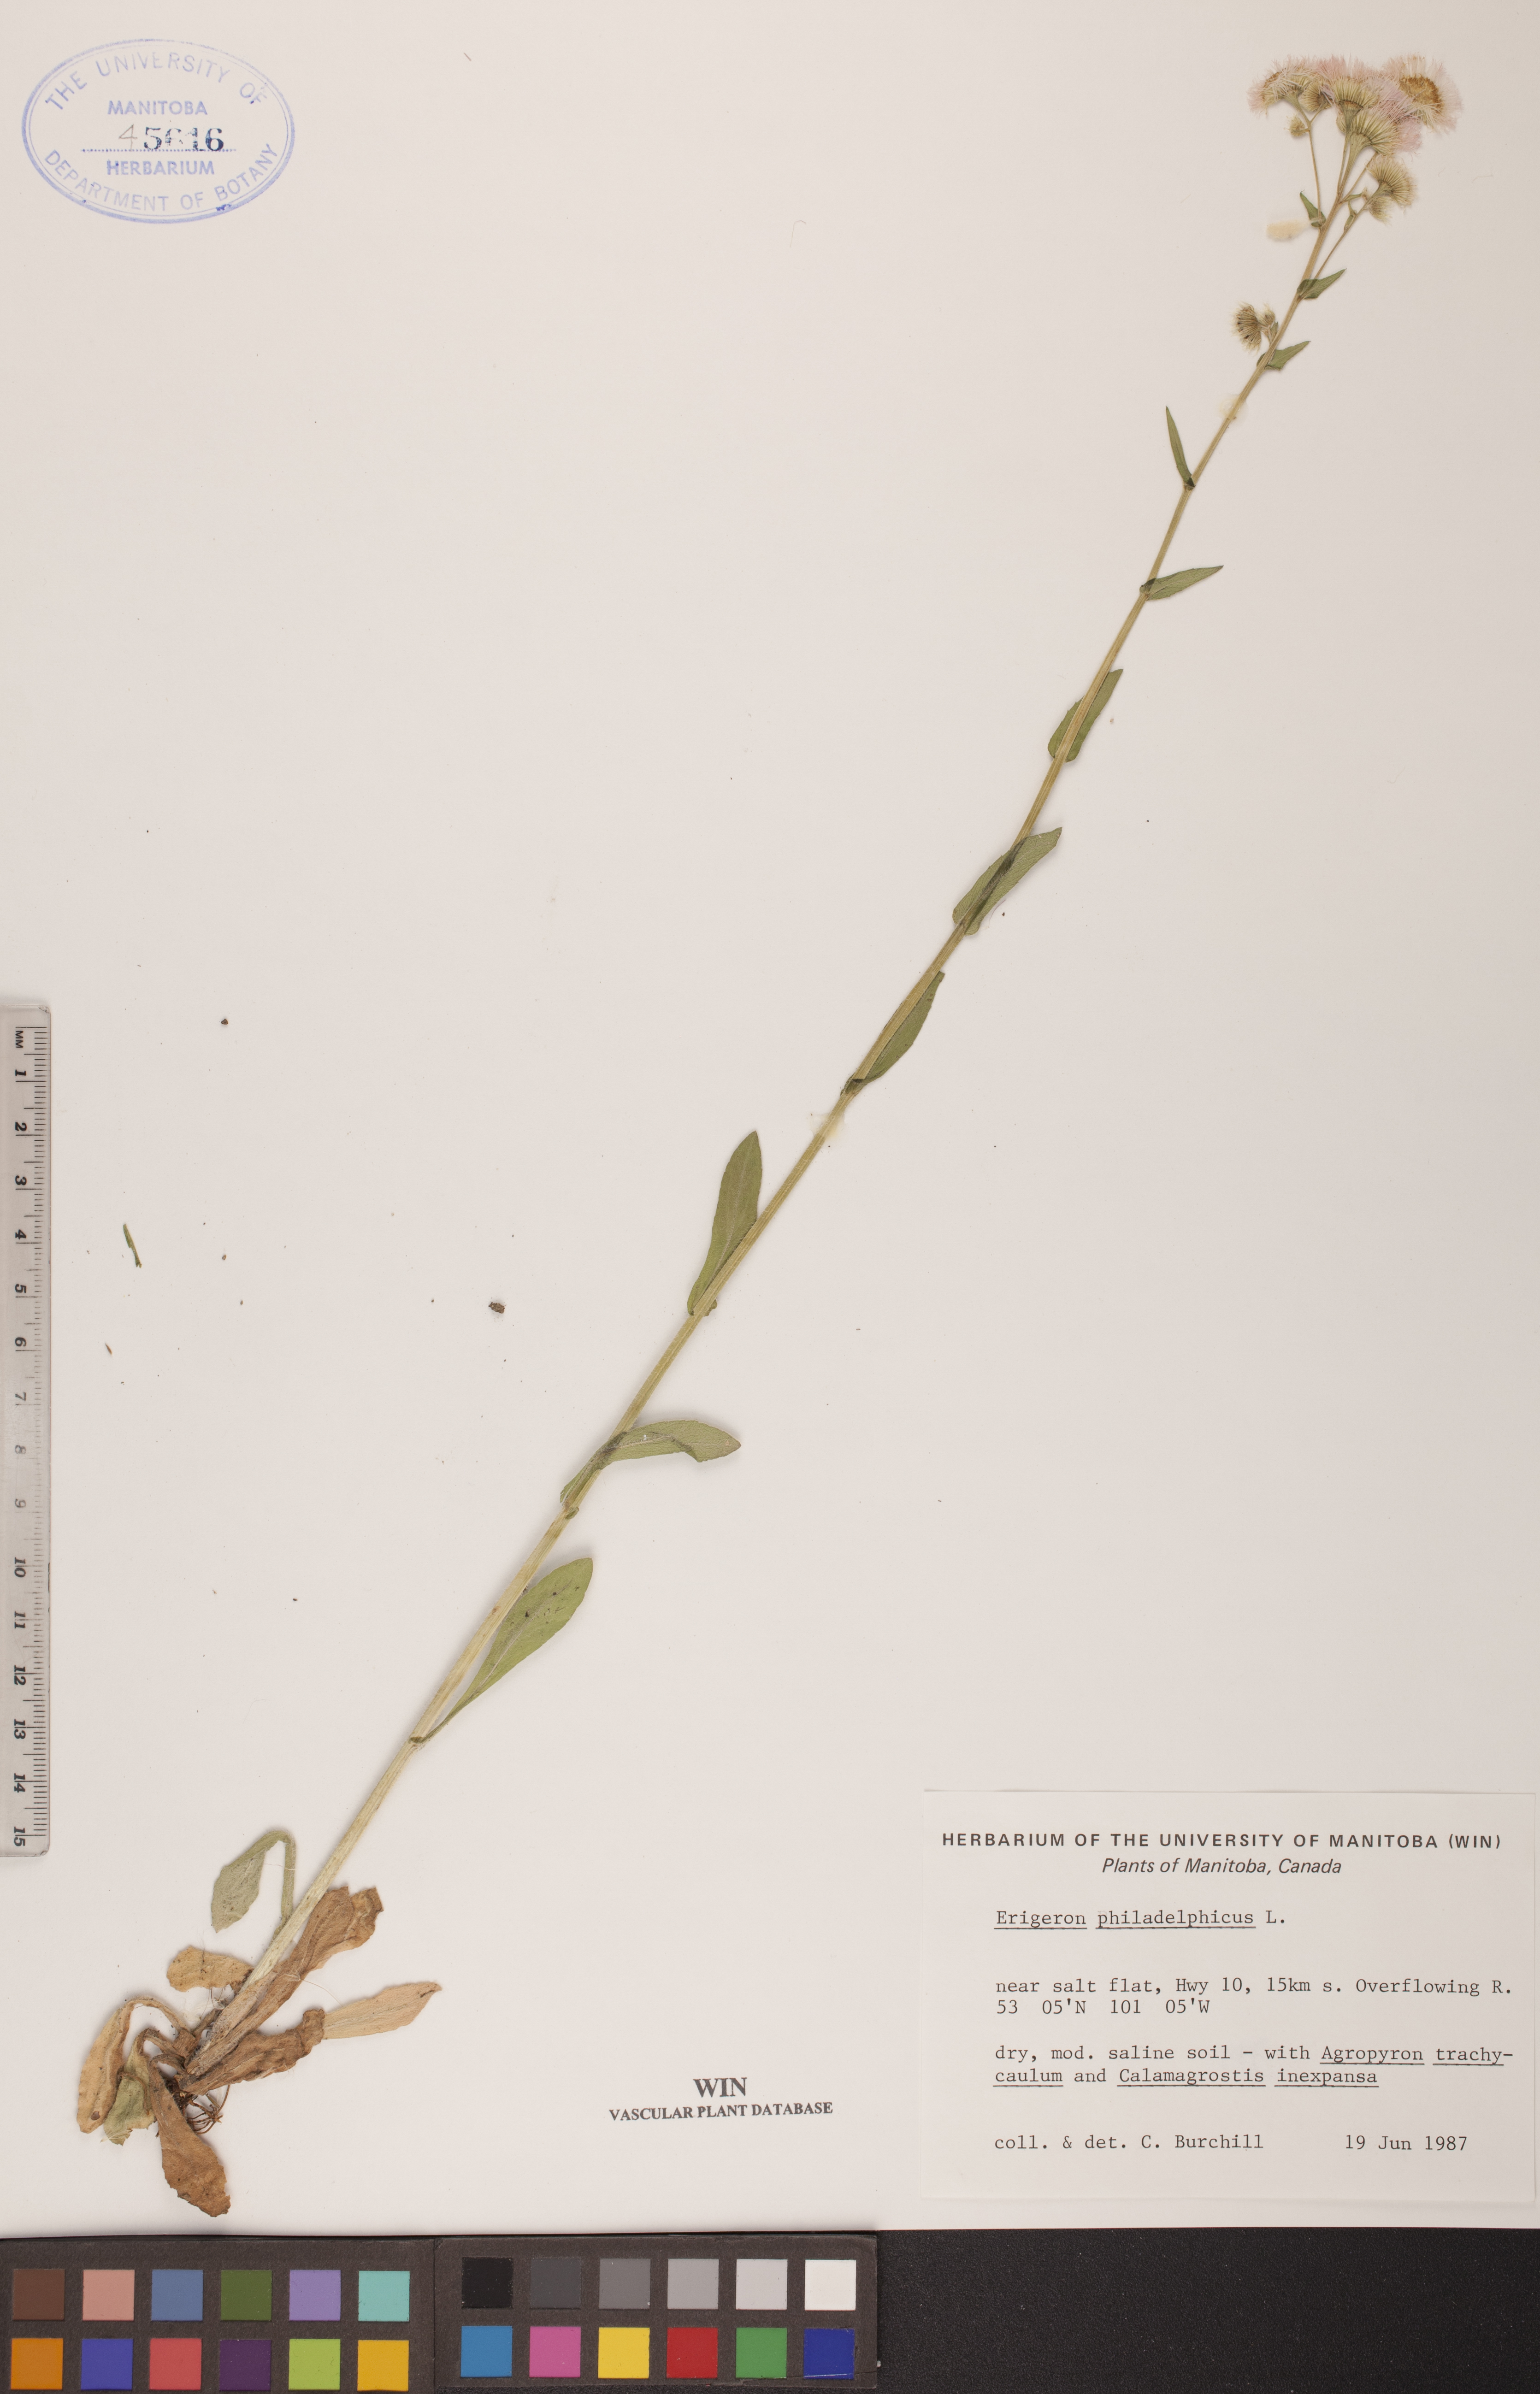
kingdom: Plantae
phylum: Tracheophyta
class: Magnoliopsida
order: Asterales
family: Asteraceae
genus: Erigeron
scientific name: Erigeron philadelphicus
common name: Robin's-plantain
